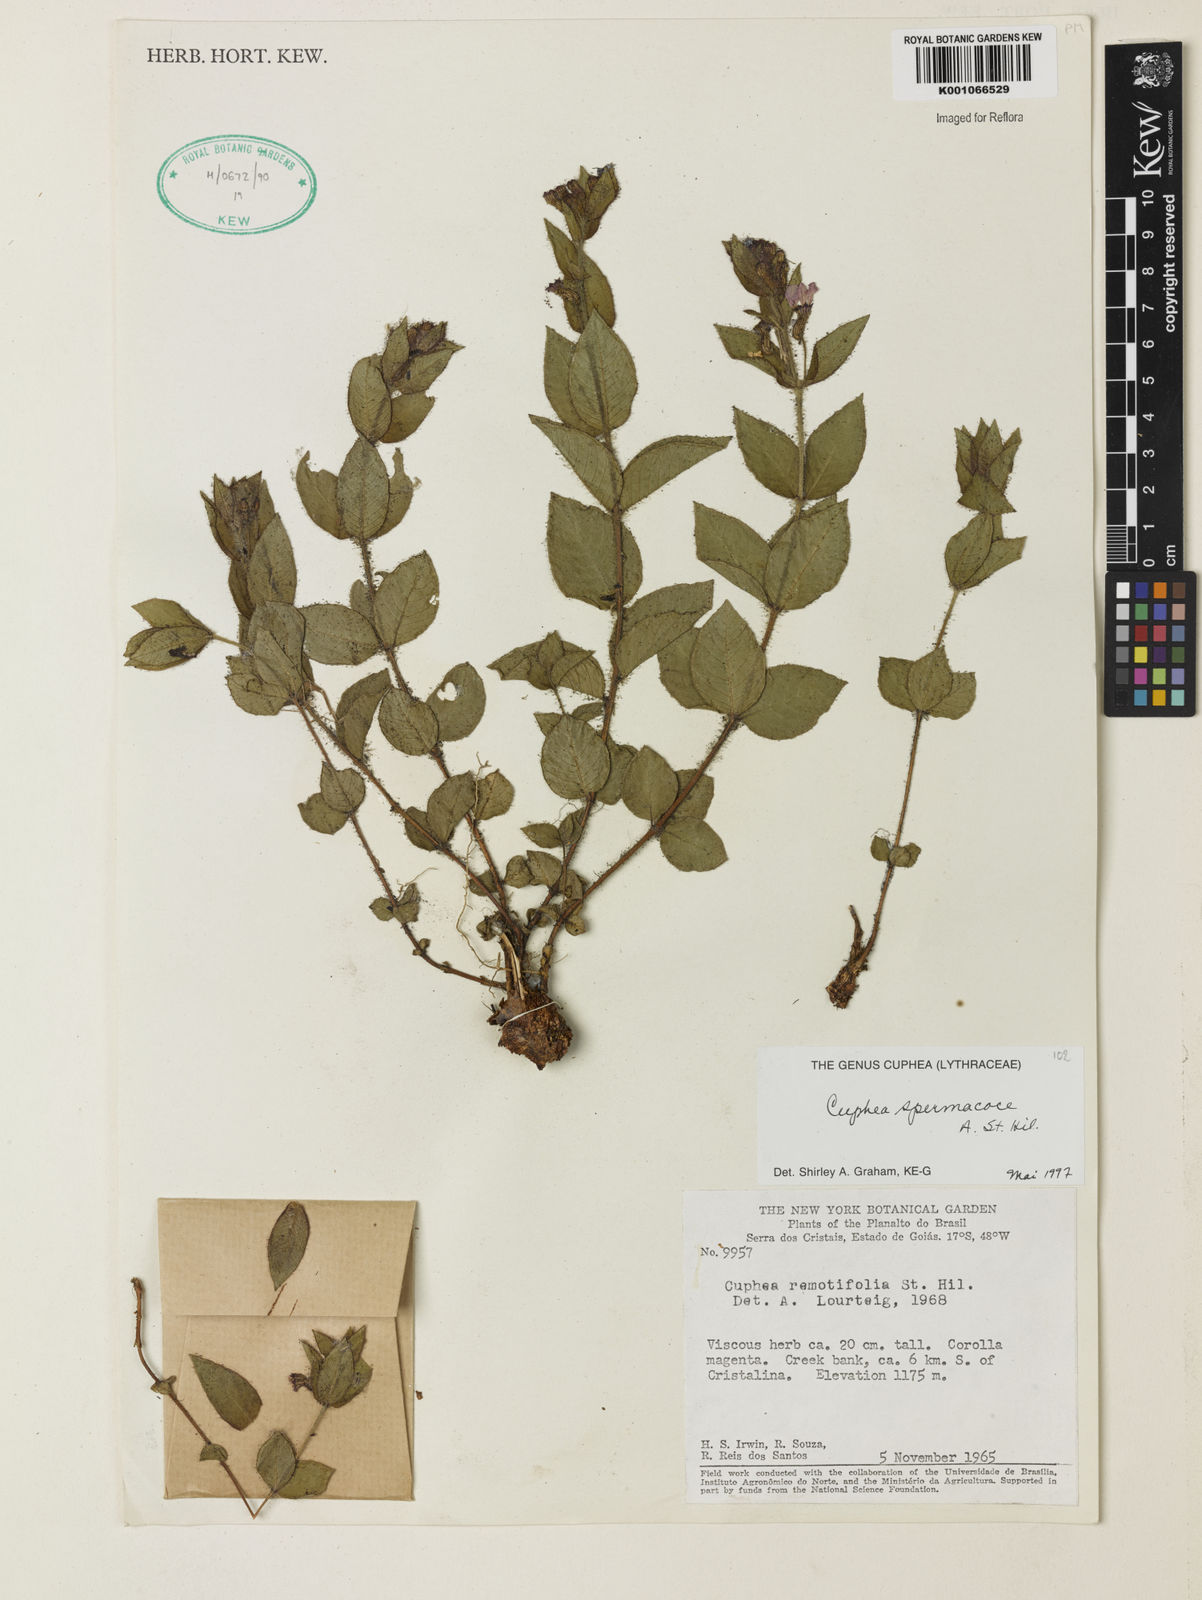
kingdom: Plantae
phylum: Tracheophyta
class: Magnoliopsida
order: Myrtales
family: Lythraceae
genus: Cuphea
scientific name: Cuphea spermacoce
